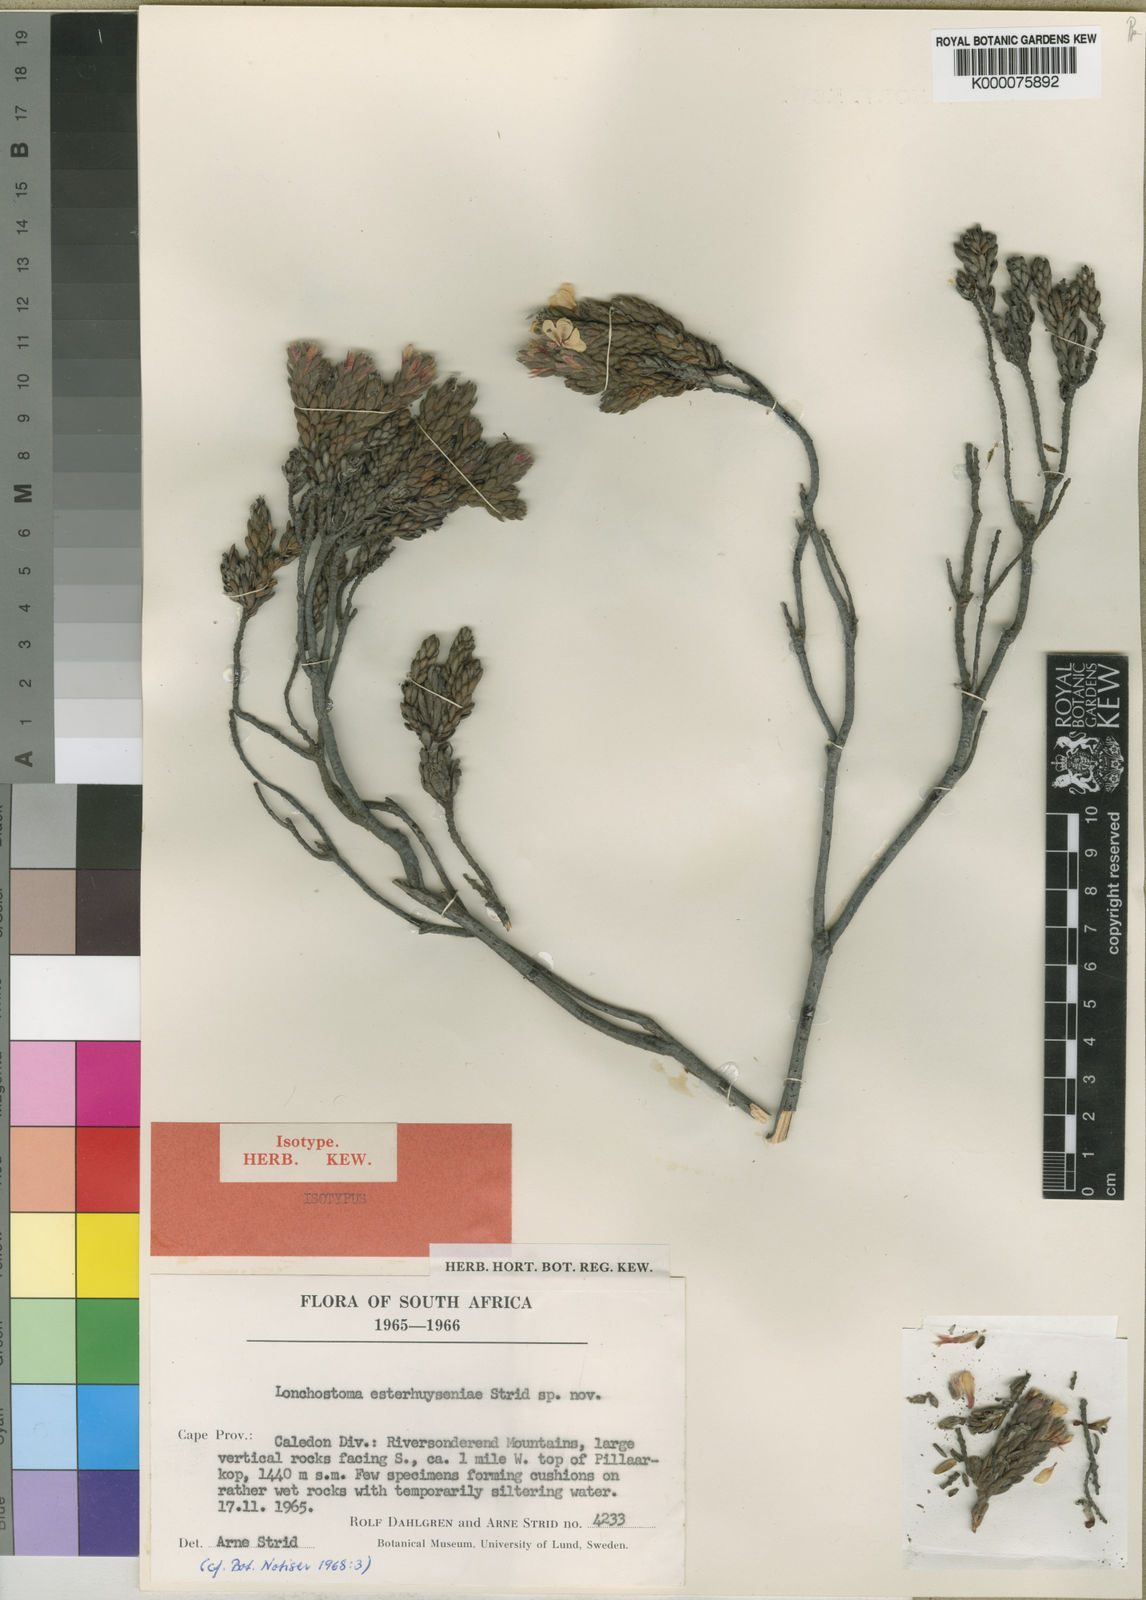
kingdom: Plantae
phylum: Tracheophyta
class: Magnoliopsida
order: Bruniales
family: Bruniaceae
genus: Brunia
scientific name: Brunia esterhuyseniae
